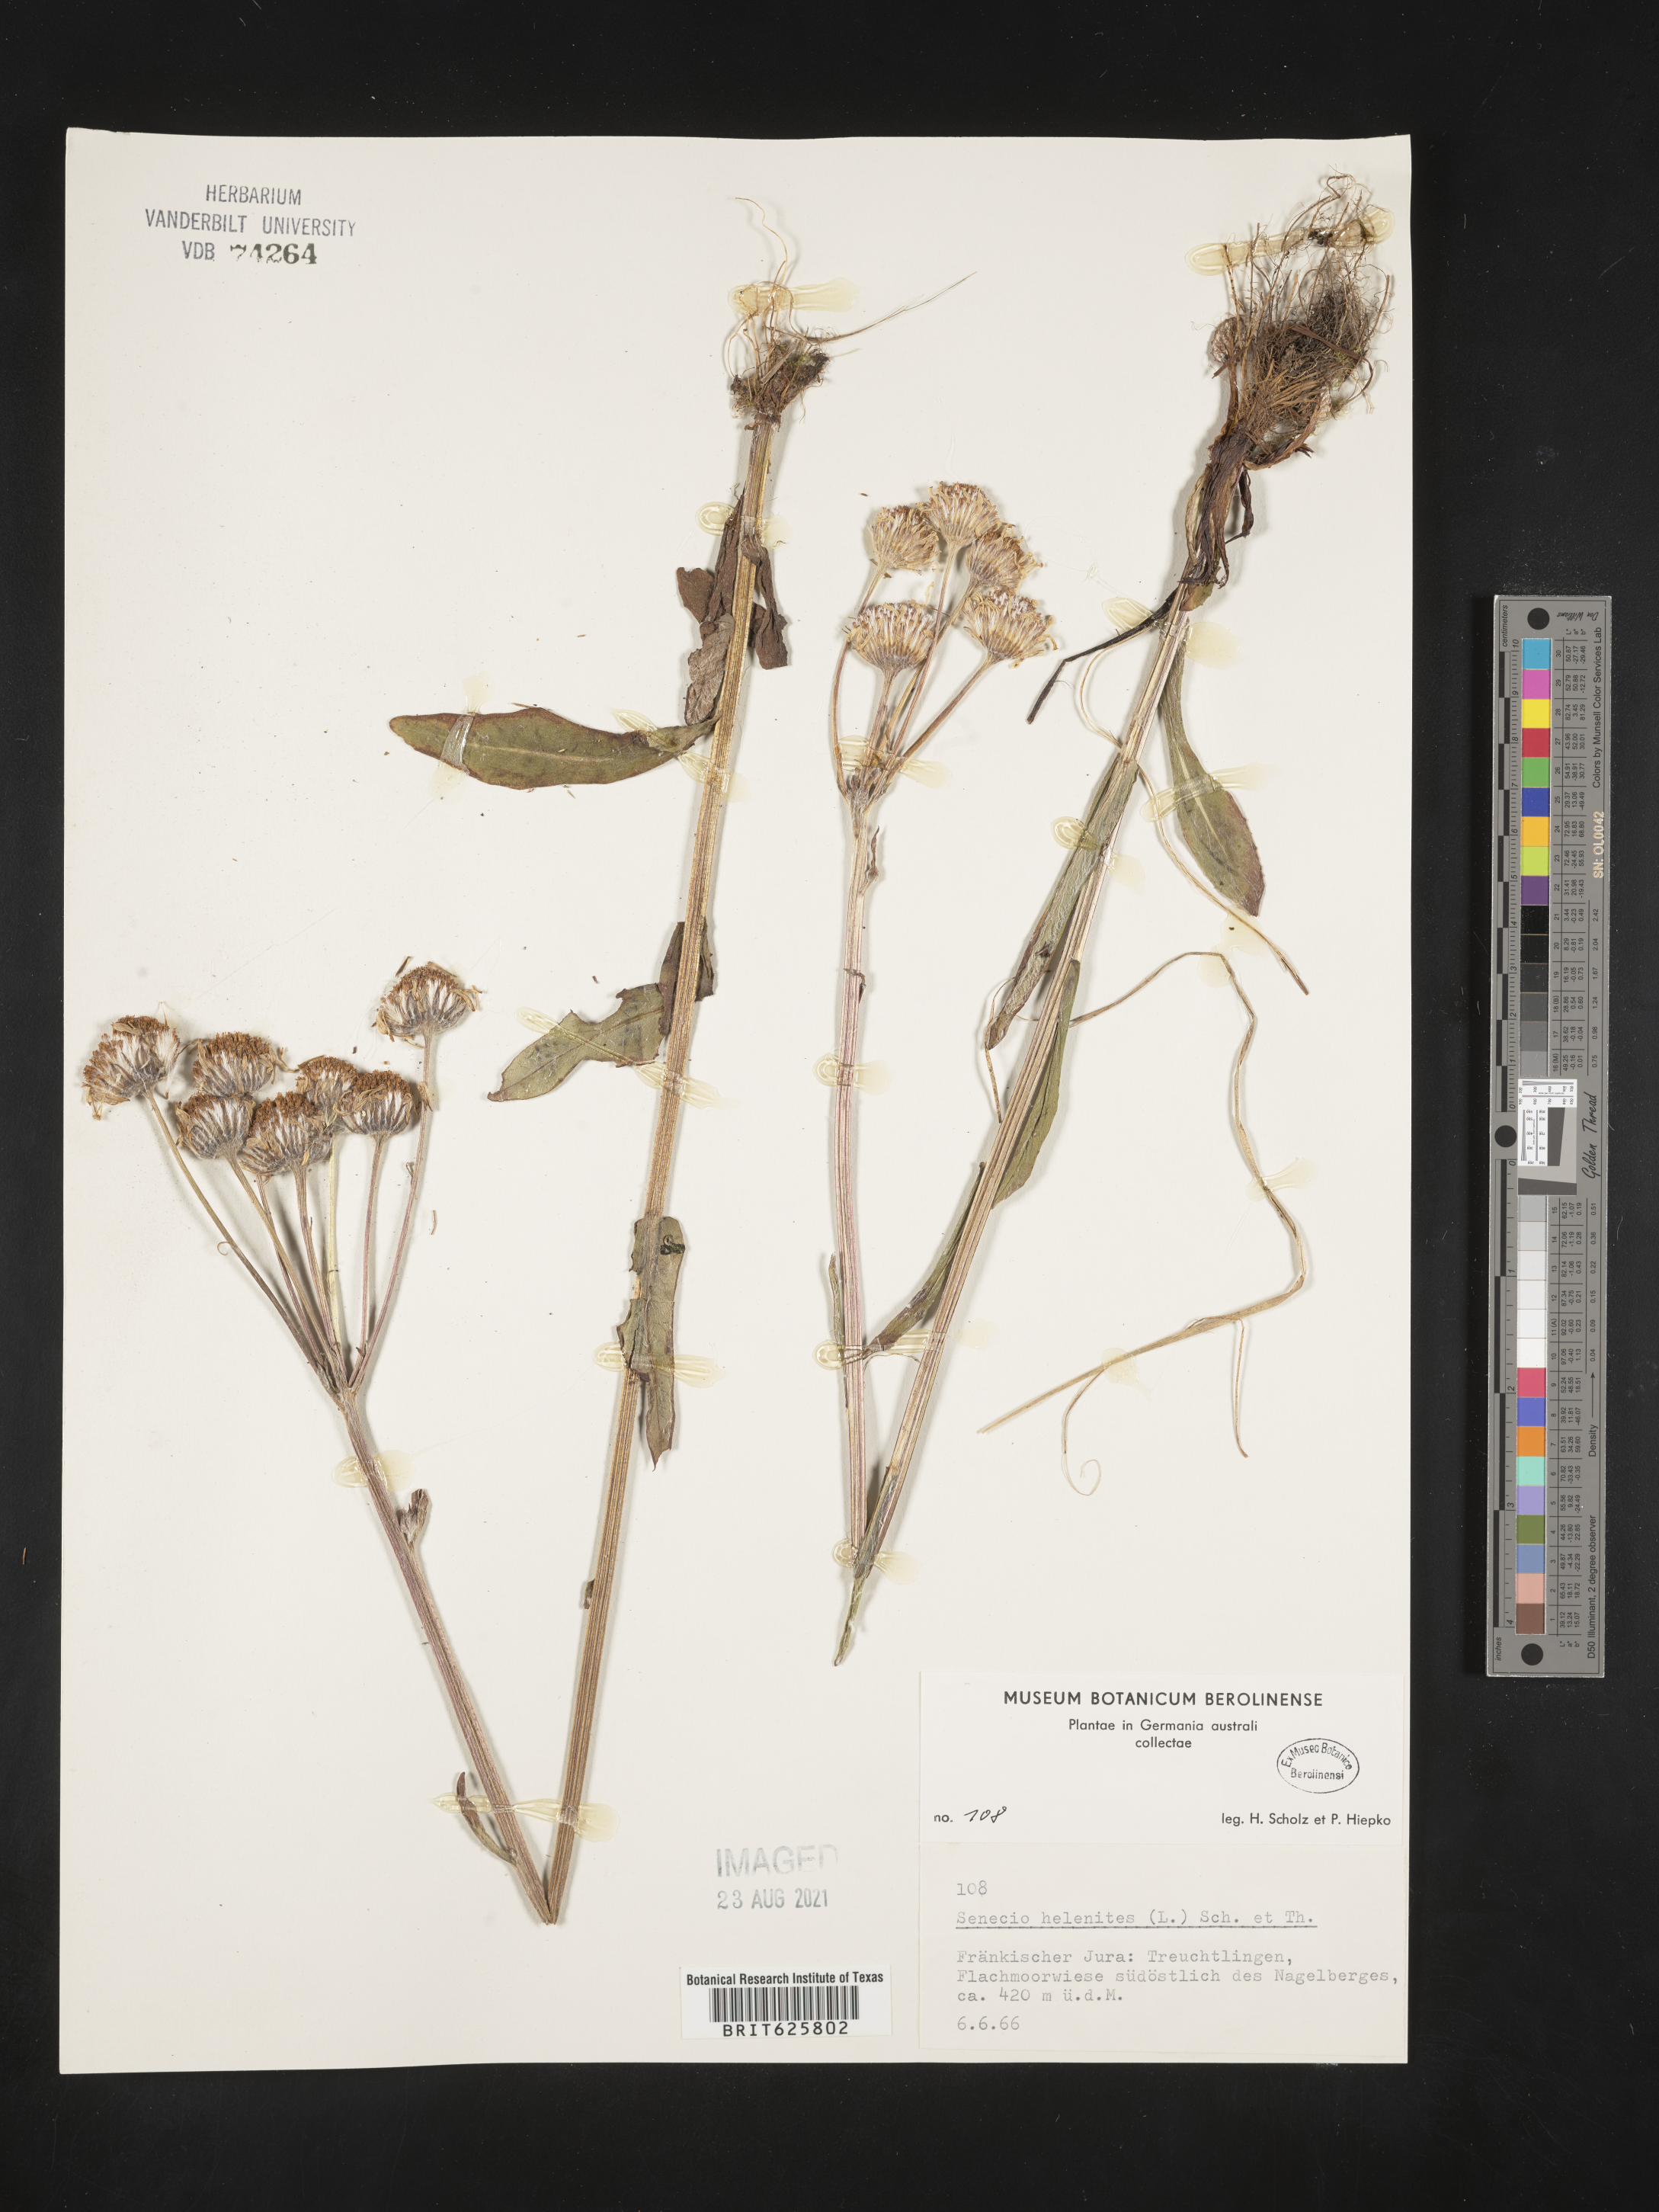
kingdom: Plantae
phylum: Tracheophyta
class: Magnoliopsida
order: Asterales
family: Asteraceae
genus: Tephroseris
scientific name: Tephroseris helenitis
